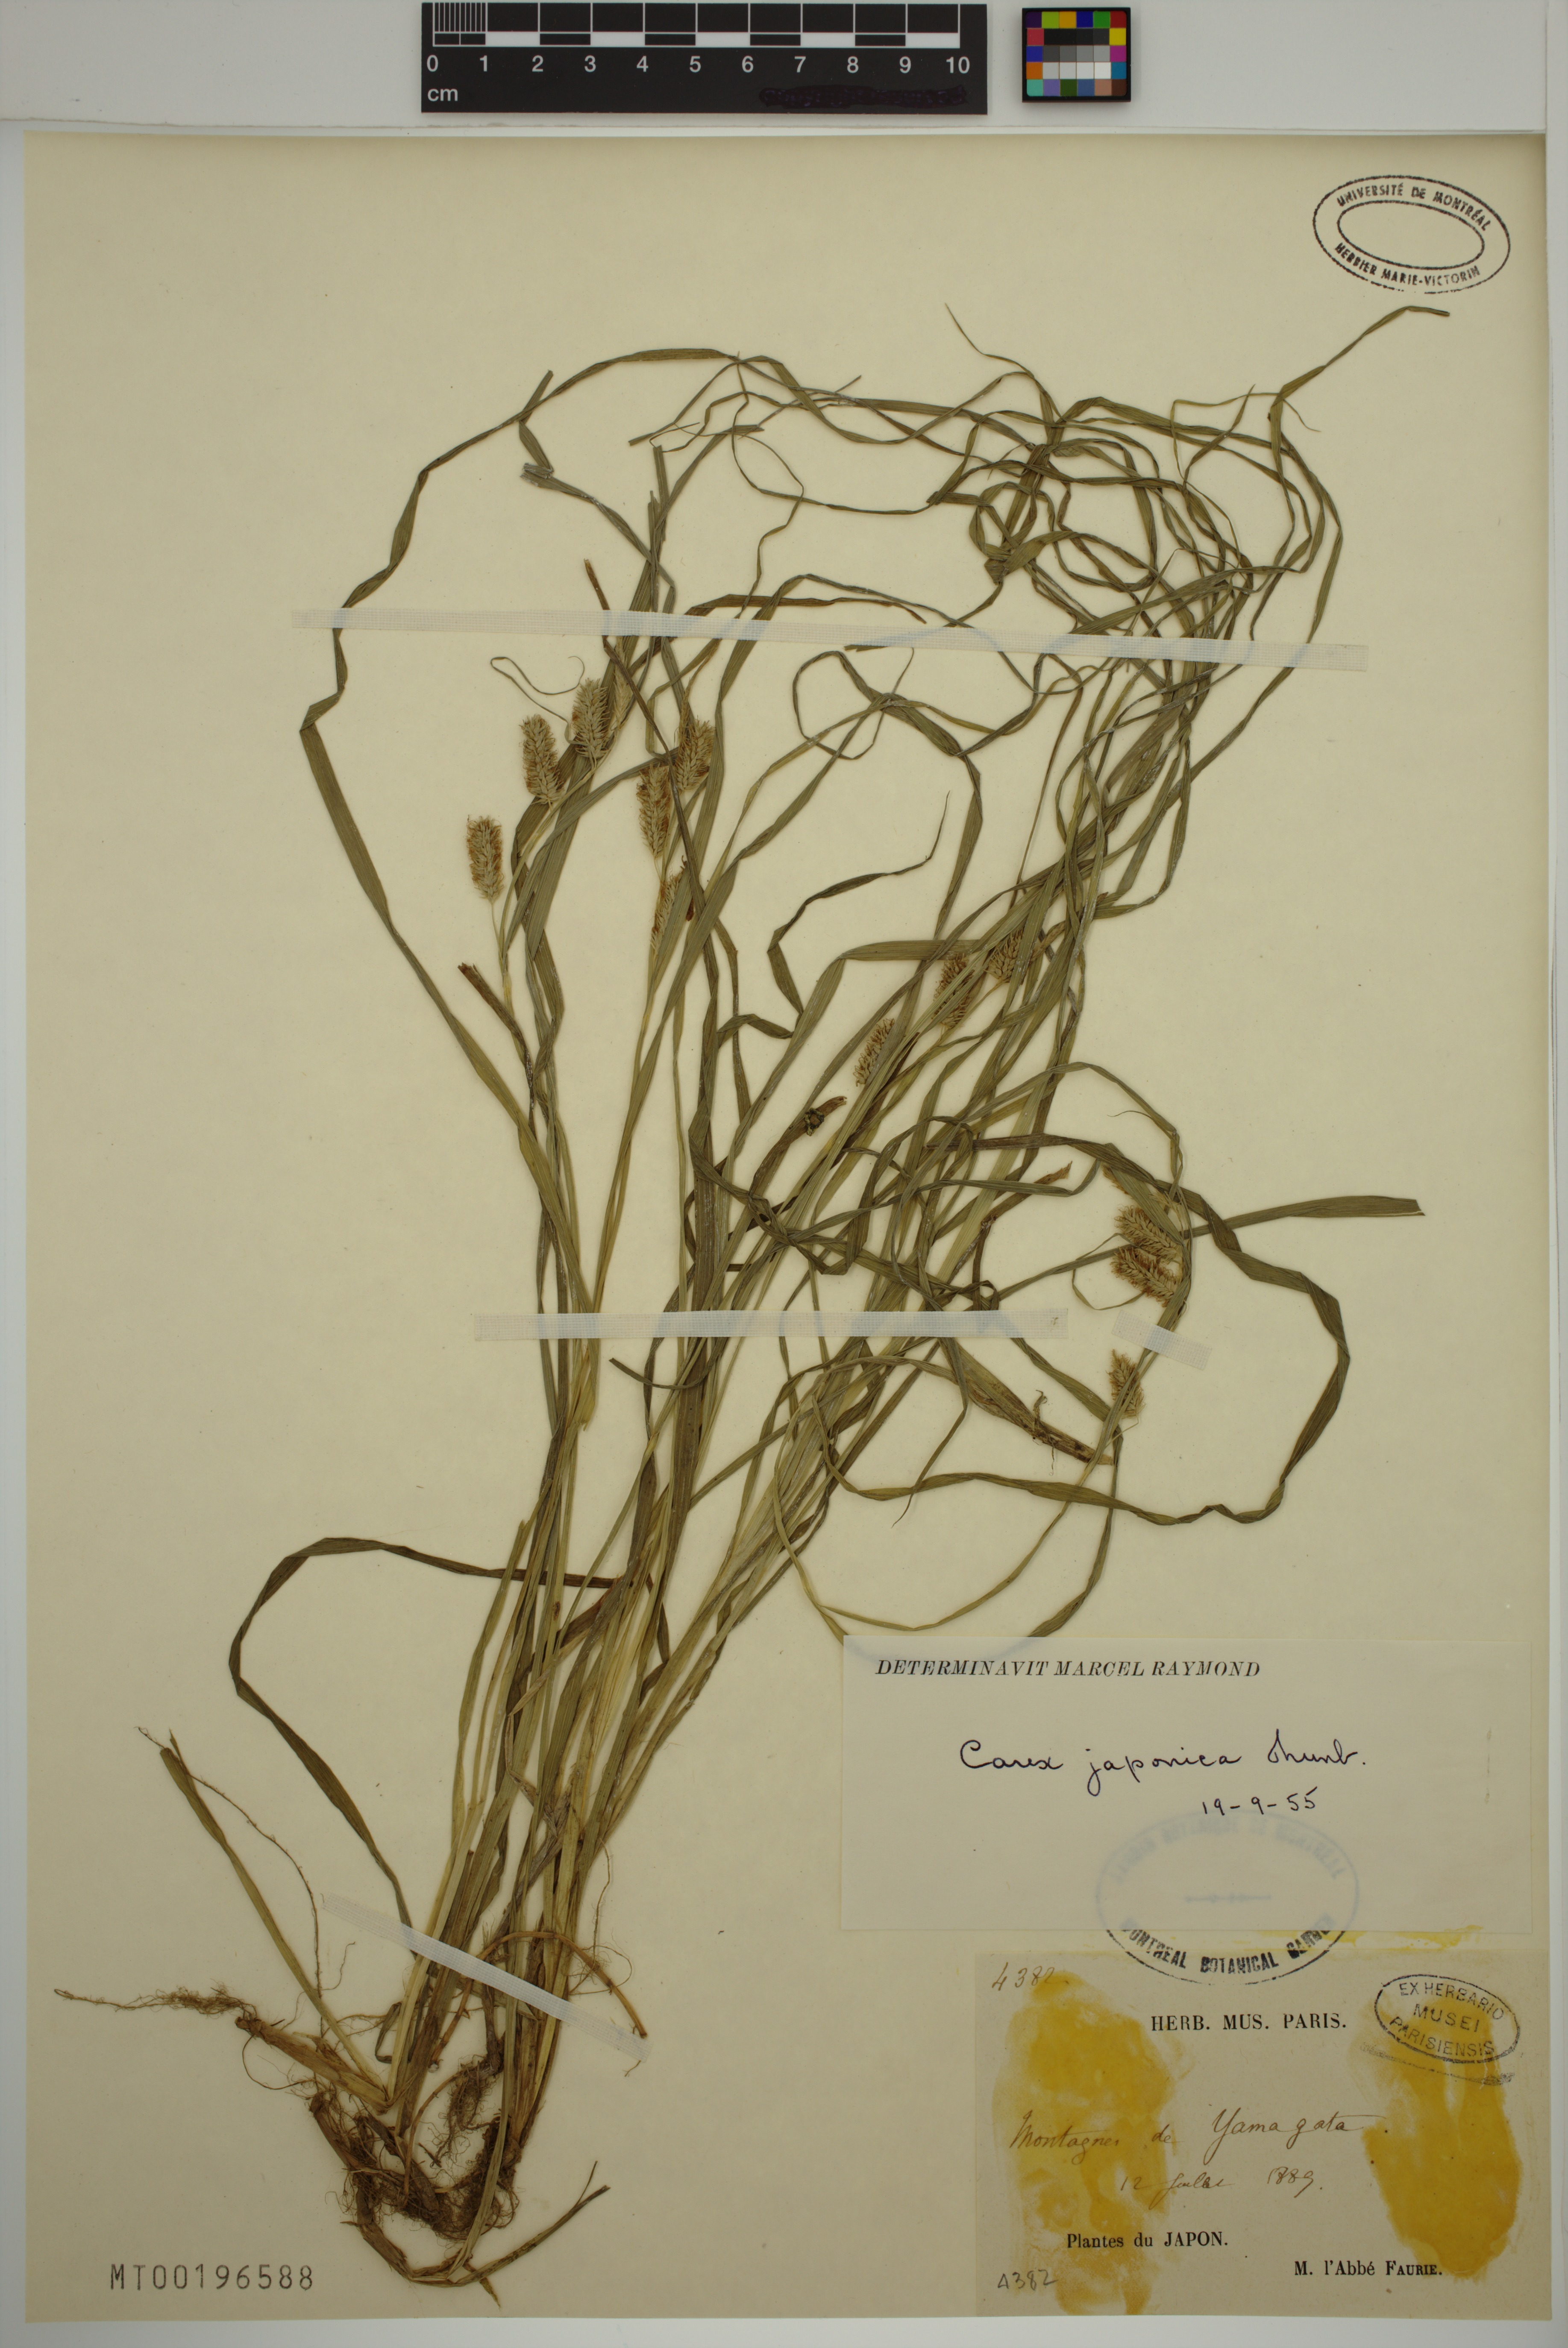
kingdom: Plantae
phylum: Tracheophyta
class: Liliopsida
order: Poales
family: Cyperaceae
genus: Carex
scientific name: Carex japonica
